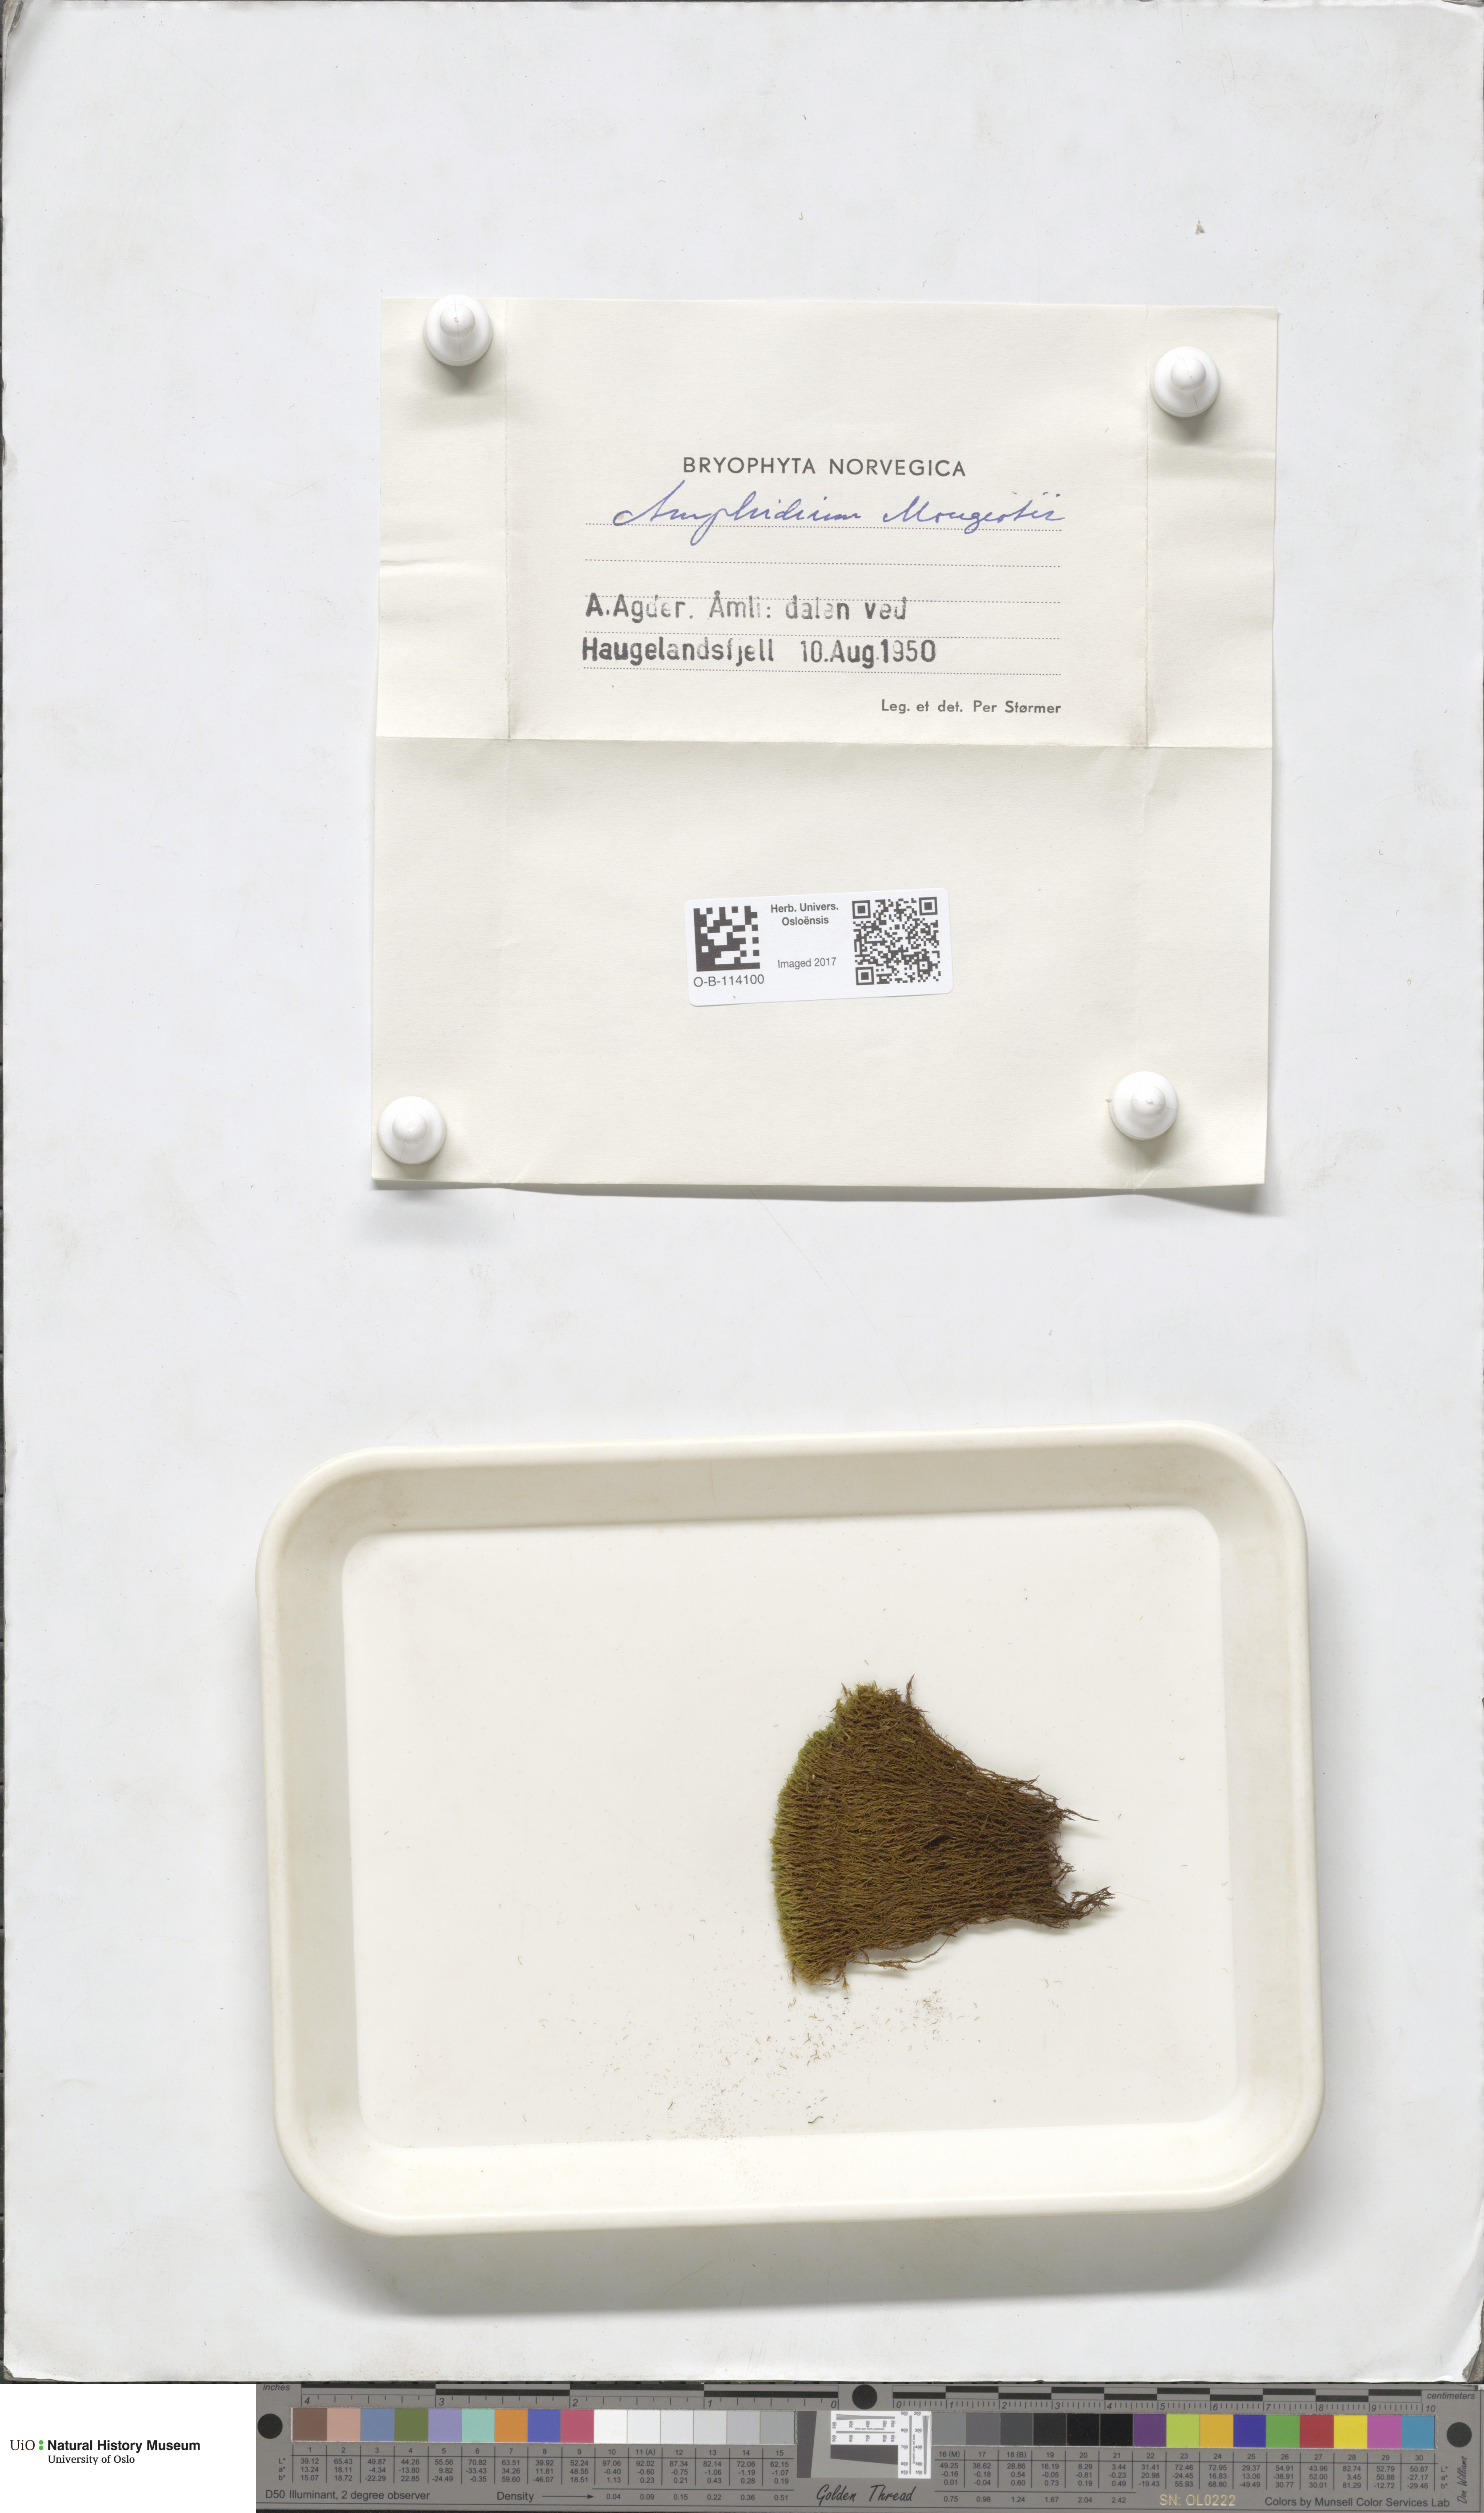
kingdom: Plantae
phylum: Bryophyta
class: Bryopsida
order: Dicranales
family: Amphidiaceae
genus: Amphidium
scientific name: Amphidium mougeotii
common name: Mougeot's yoke moss
